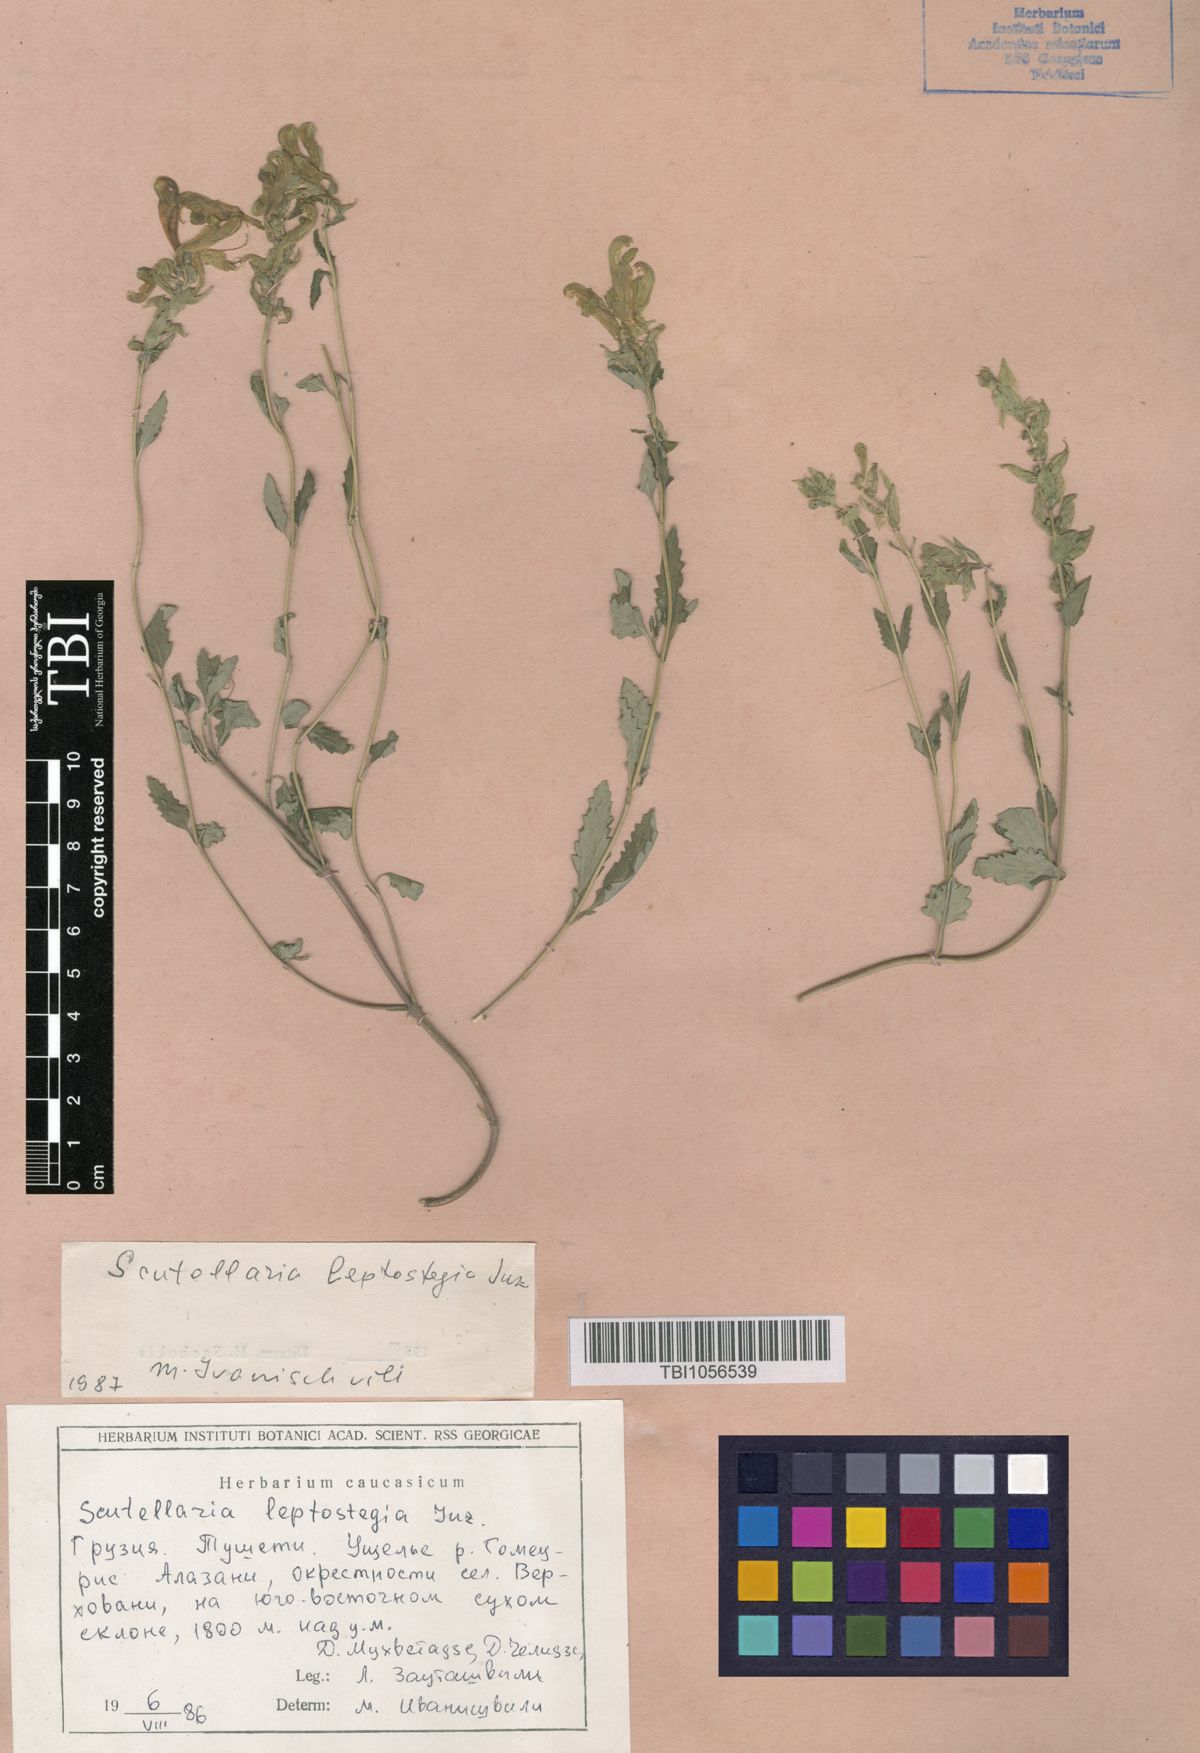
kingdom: Plantae
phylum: Tracheophyta
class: Magnoliopsida
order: Lamiales
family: Lamiaceae
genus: Scutellaria
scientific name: Scutellaria leptostegia
